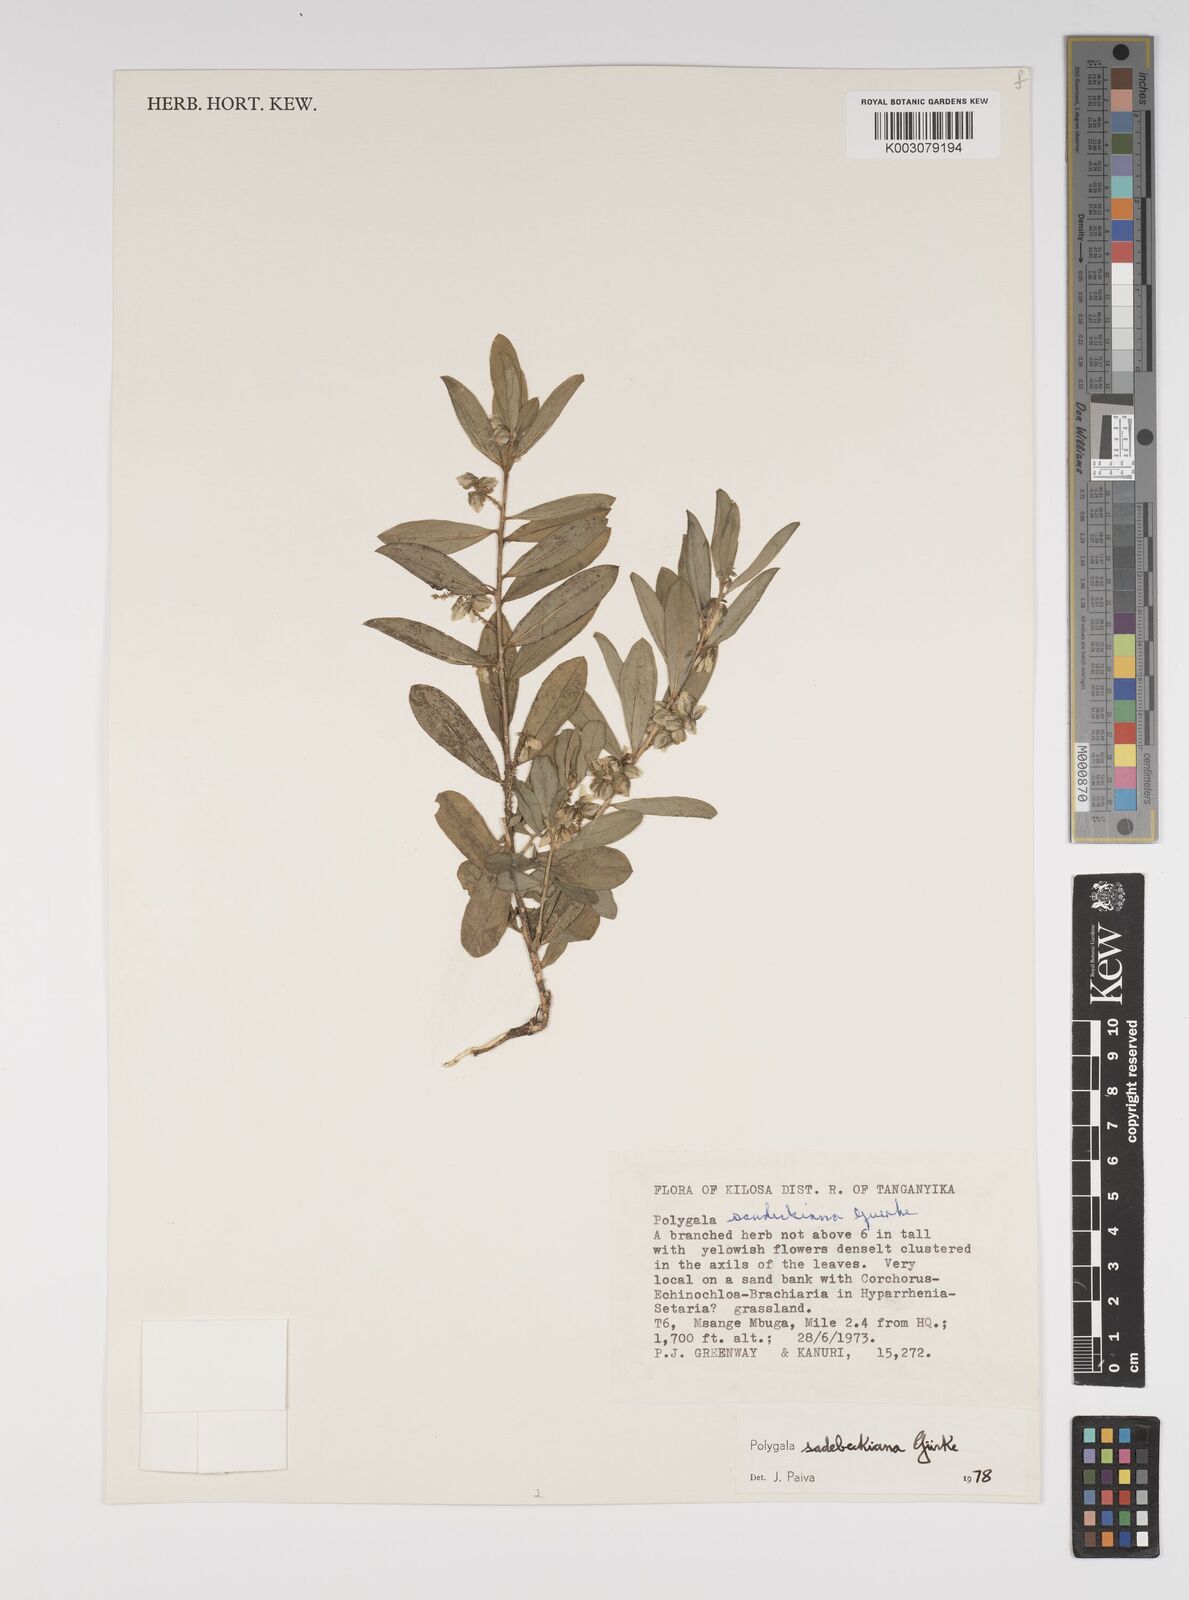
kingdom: Plantae
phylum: Tracheophyta
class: Magnoliopsida
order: Fabales
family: Polygalaceae
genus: Polygala
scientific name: Polygala sadebeckiana
